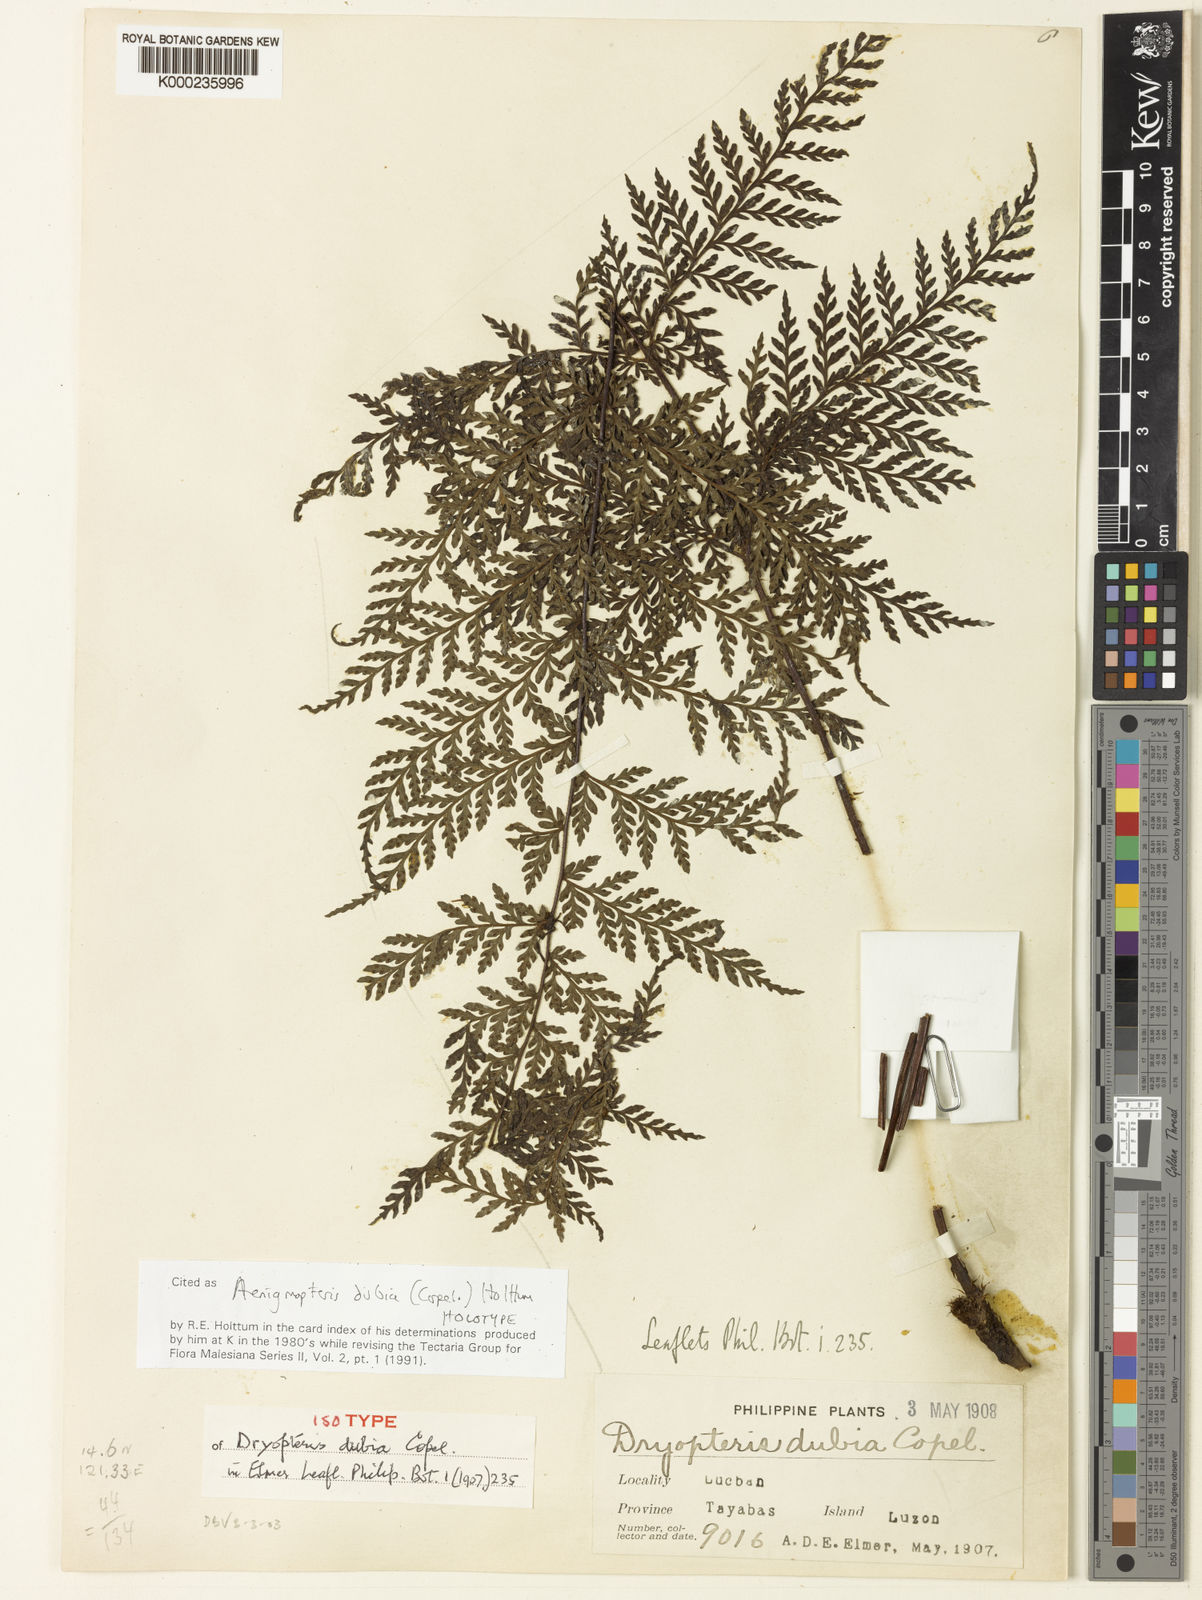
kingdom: Plantae
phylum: Tracheophyta
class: Polypodiopsida
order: Polypodiales
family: Tectariaceae
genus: Tectaria
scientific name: Tectaria aenigma
